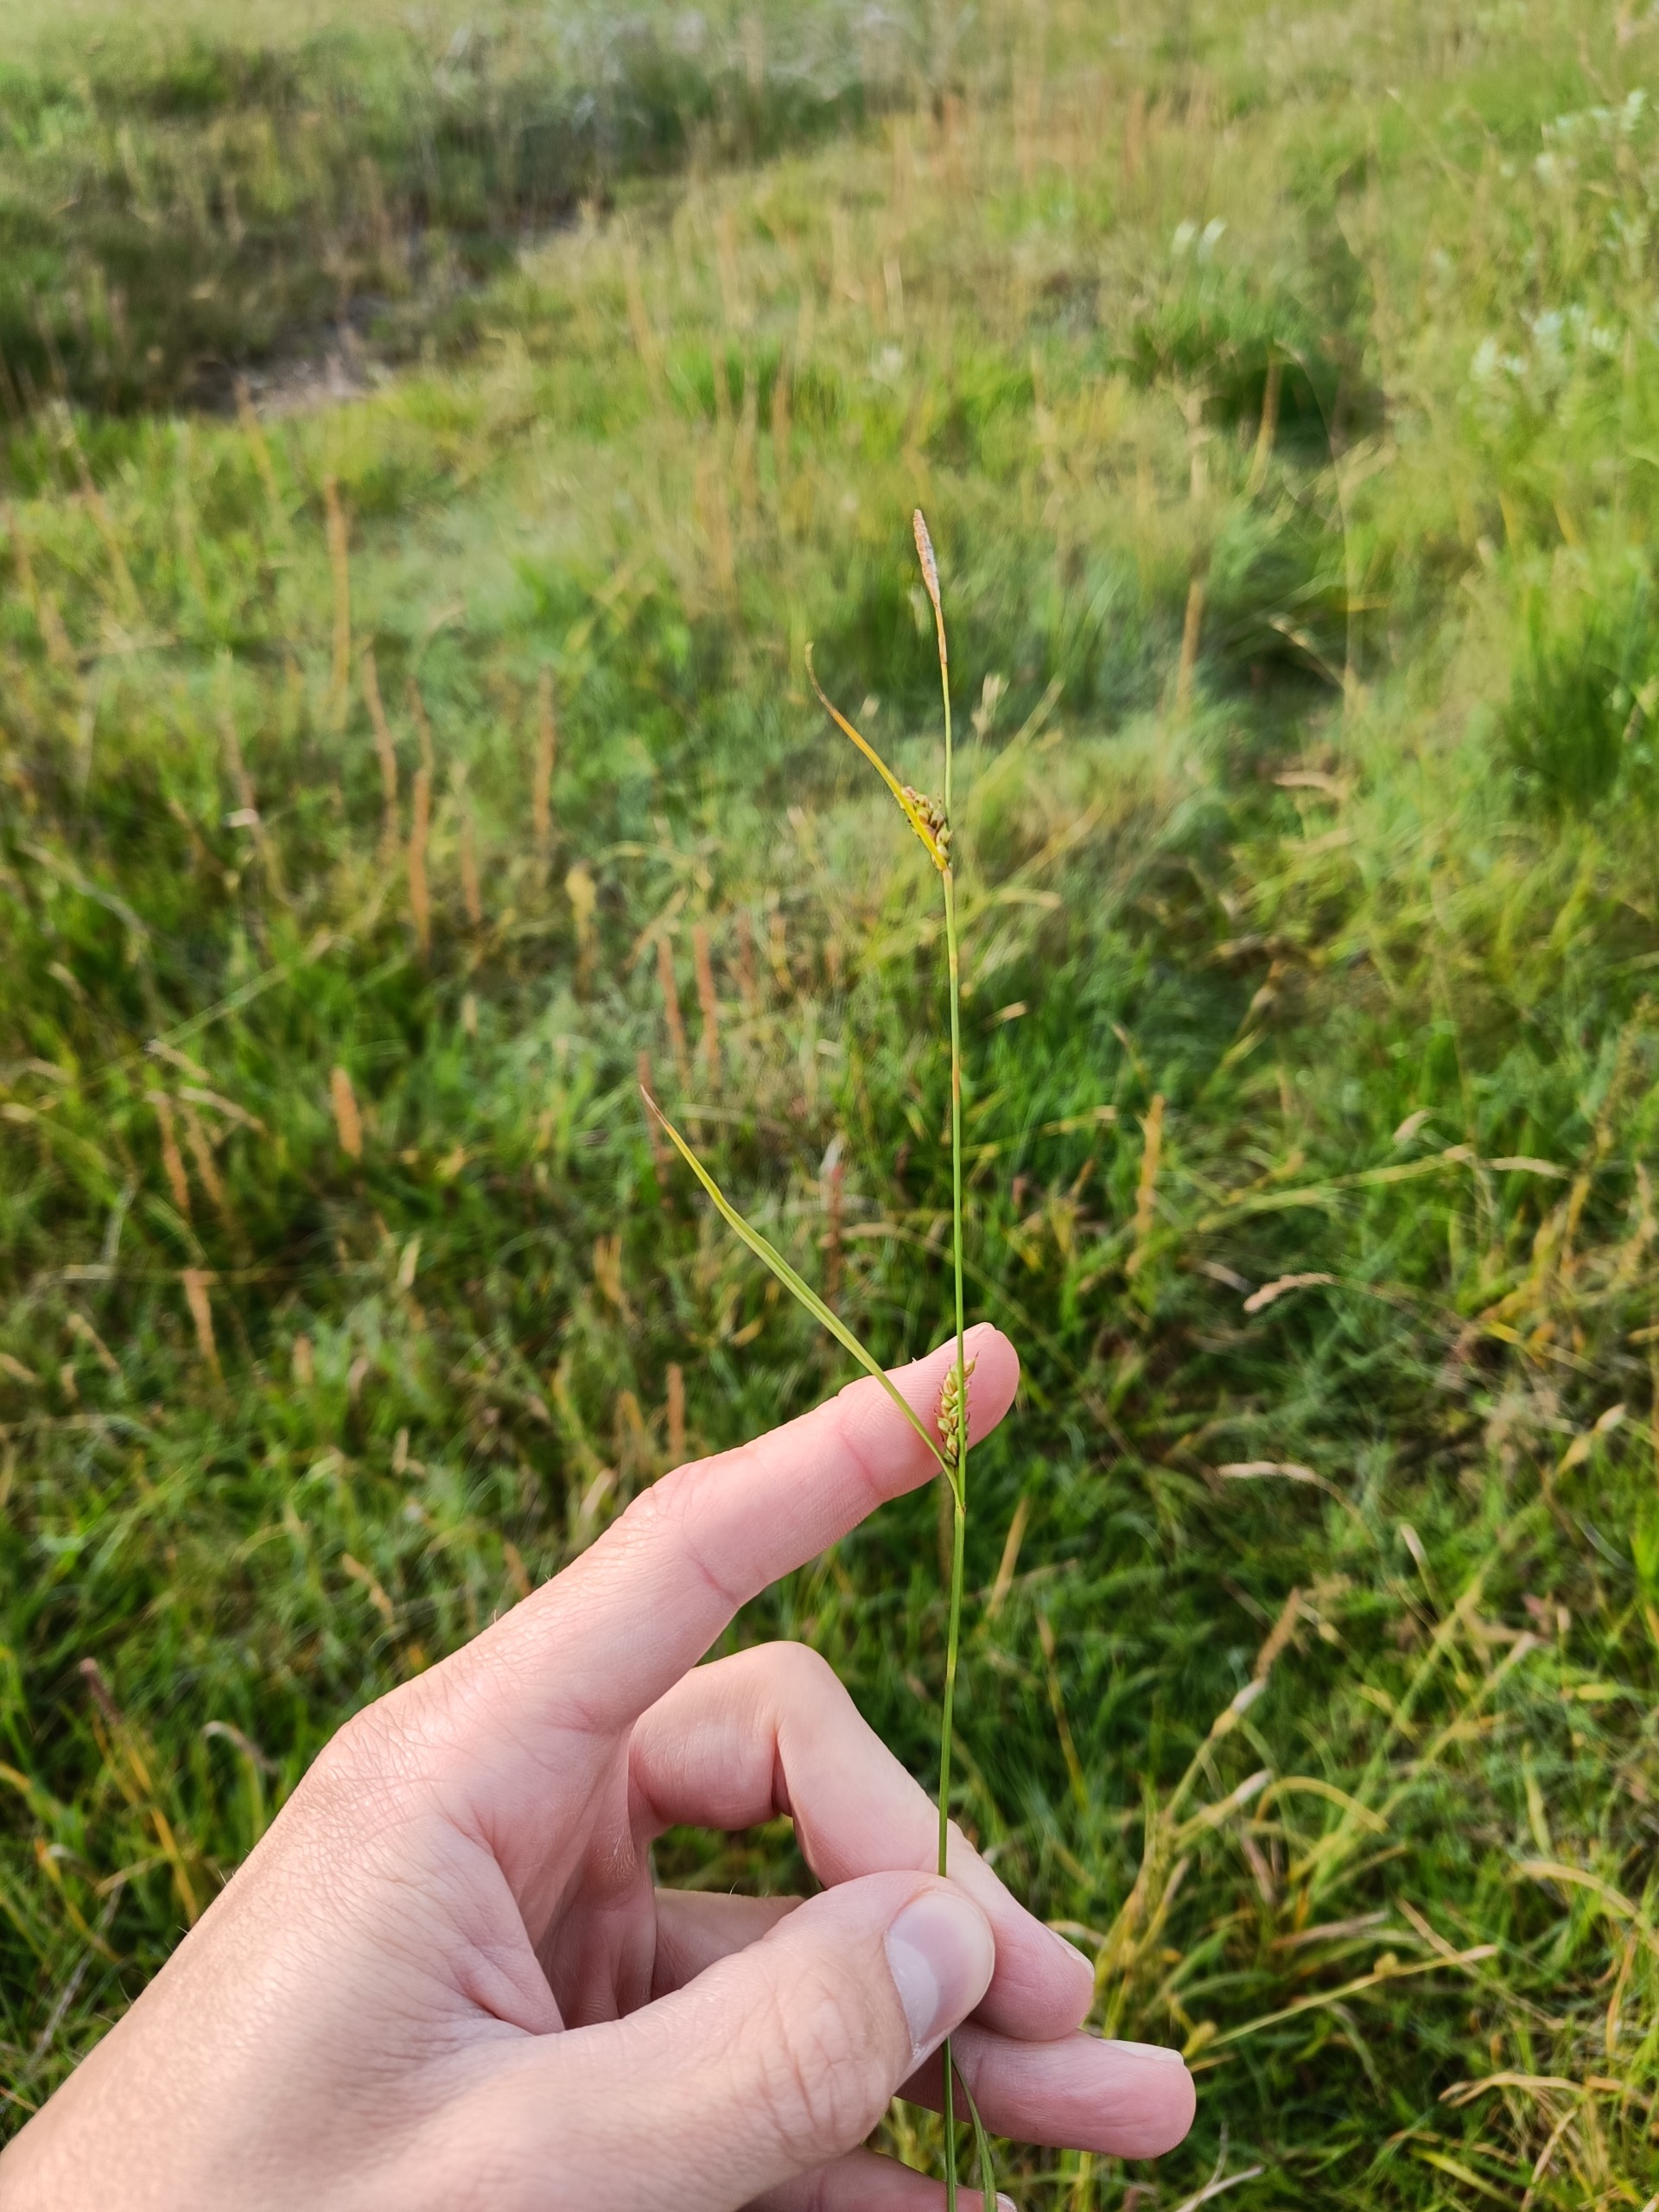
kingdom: Plantae
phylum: Tracheophyta
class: Liliopsida
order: Poales
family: Cyperaceae
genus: Carex
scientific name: Carex distans
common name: Fjernakset star
